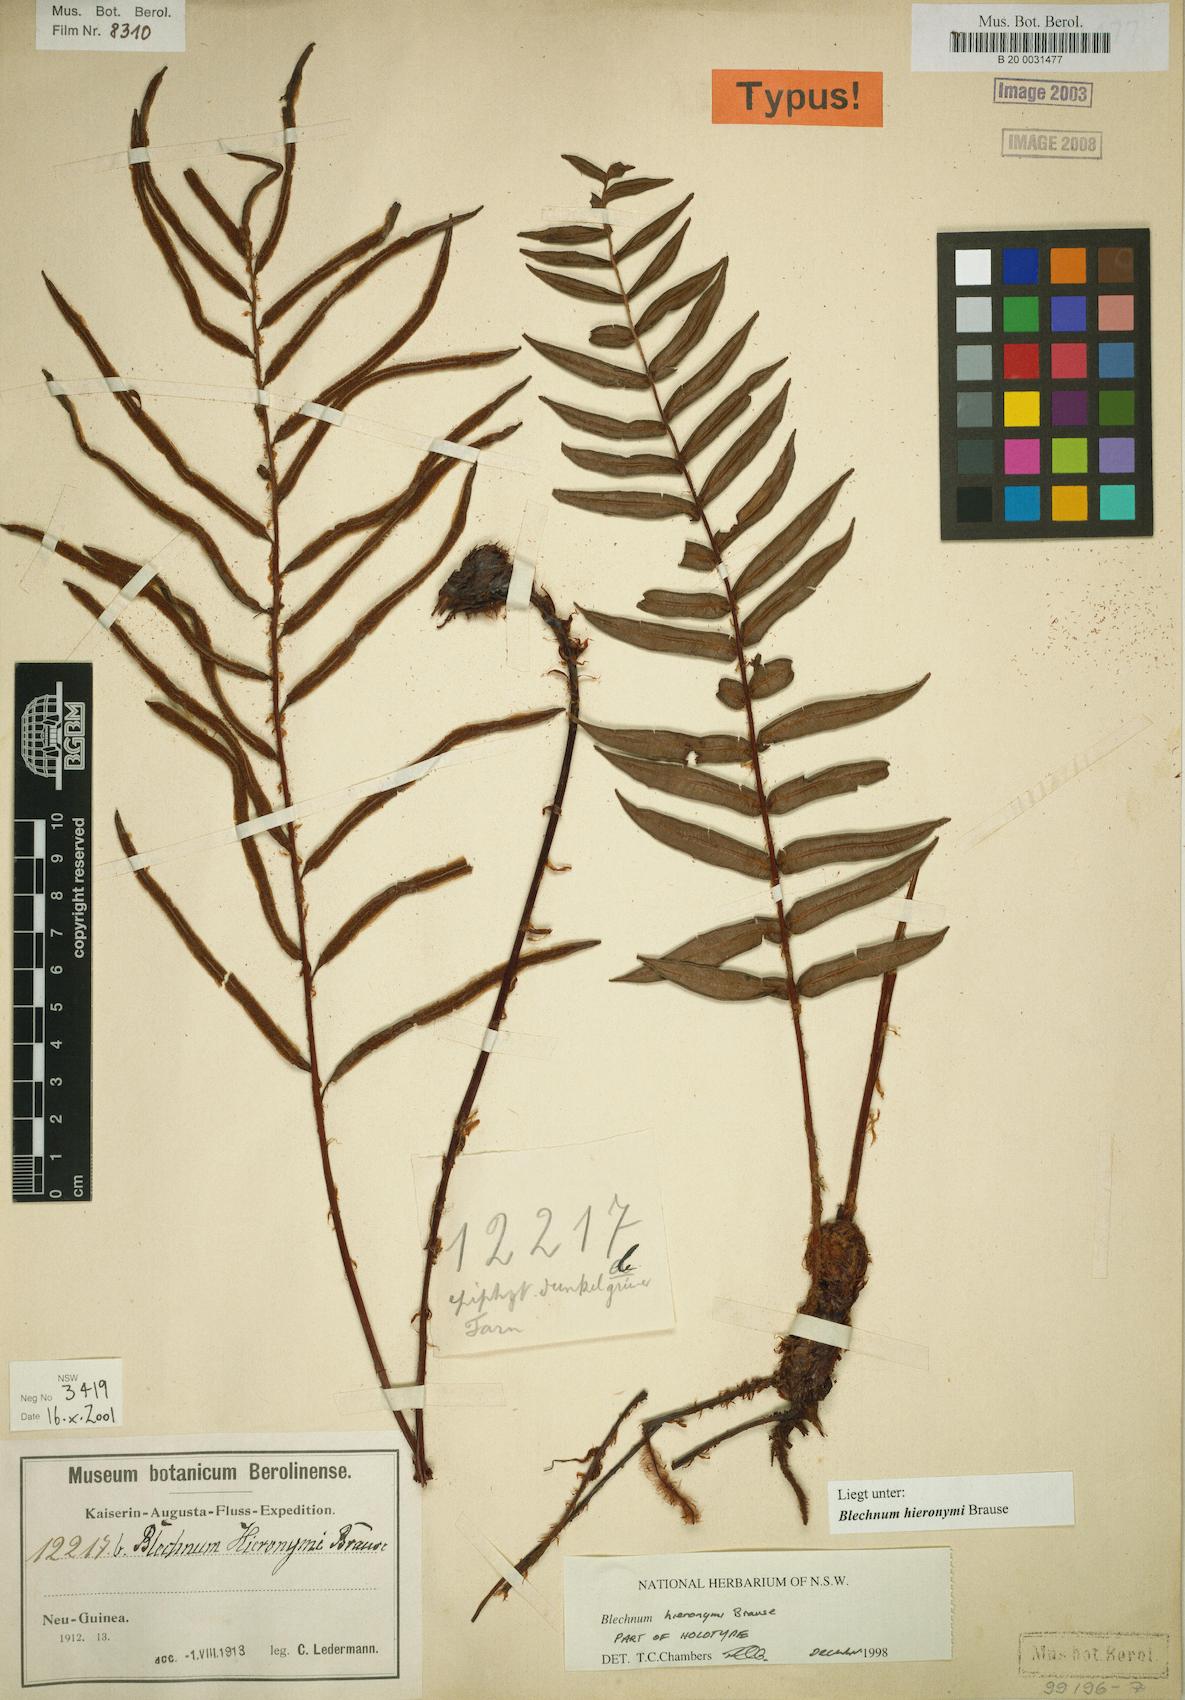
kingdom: Plantae
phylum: Tracheophyta
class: Polypodiopsida
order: Polypodiales
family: Blechnaceae
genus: Parablechnum
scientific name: Parablechnum hieronymi
